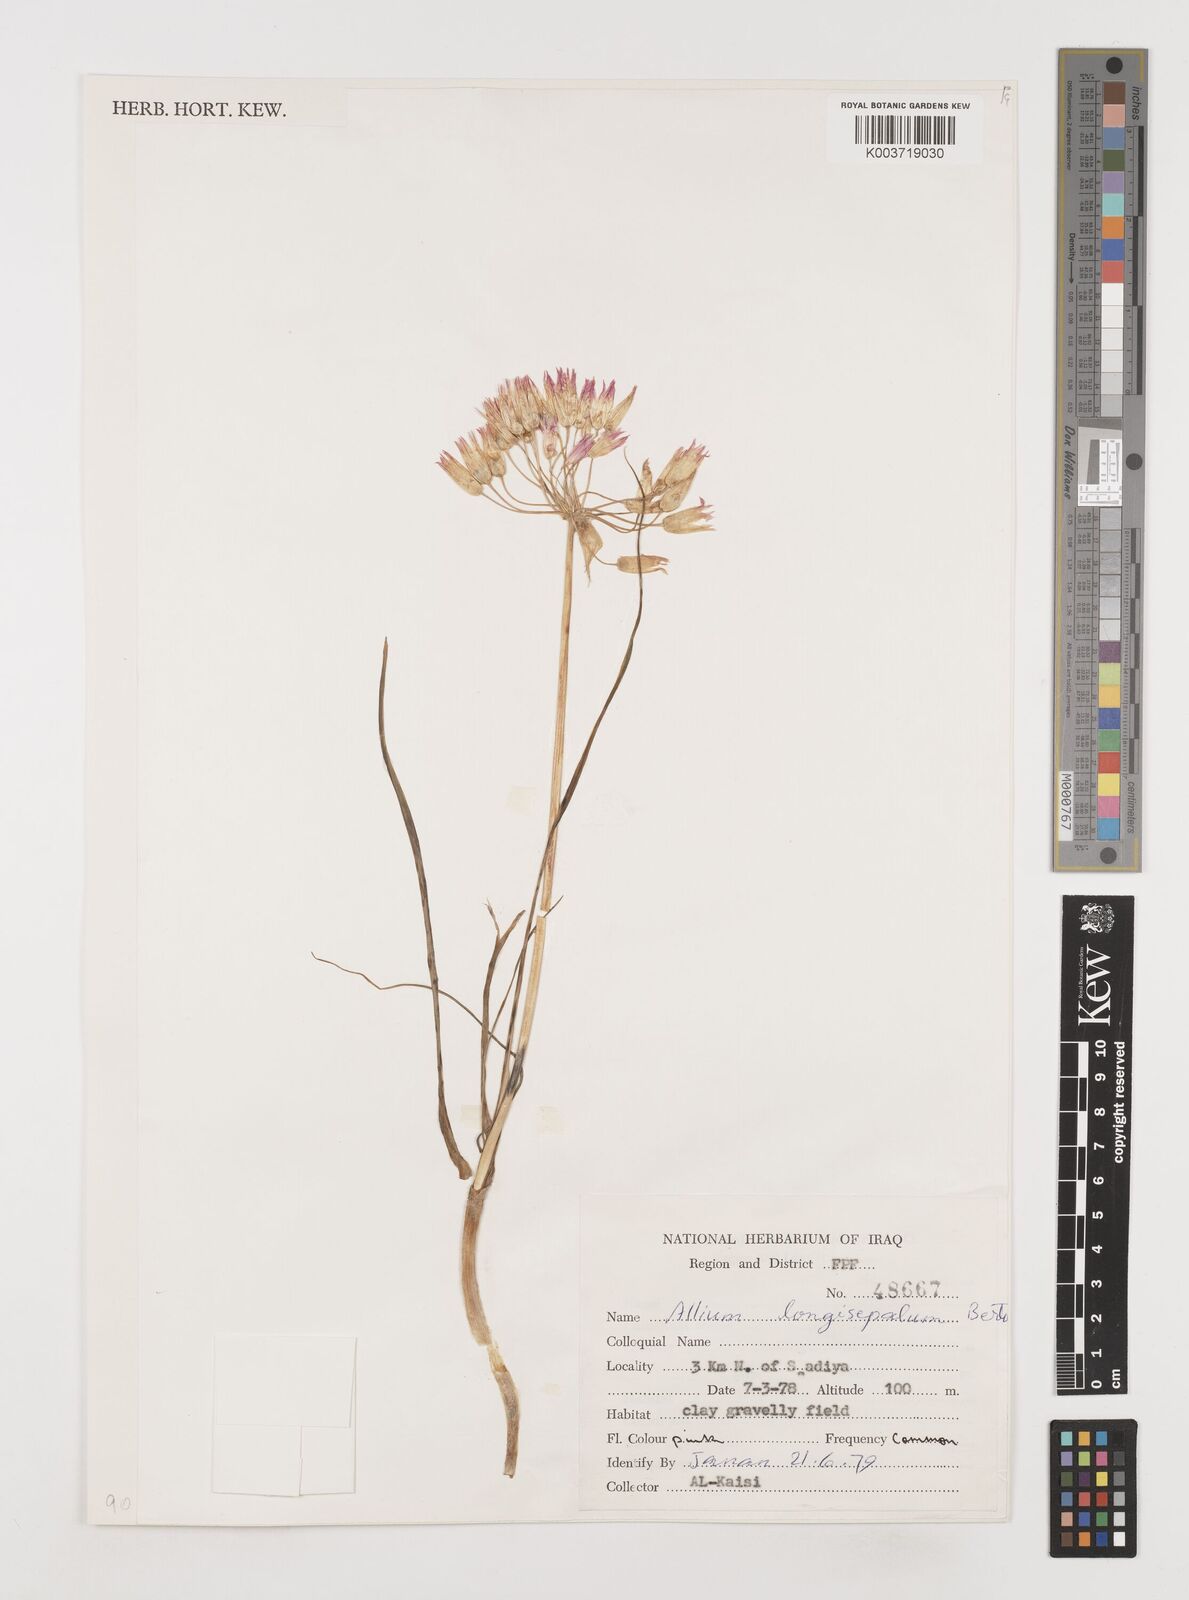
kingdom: Plantae
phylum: Tracheophyta
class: Liliopsida
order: Asparagales
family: Amaryllidaceae
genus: Allium
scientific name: Allium longisepalum
